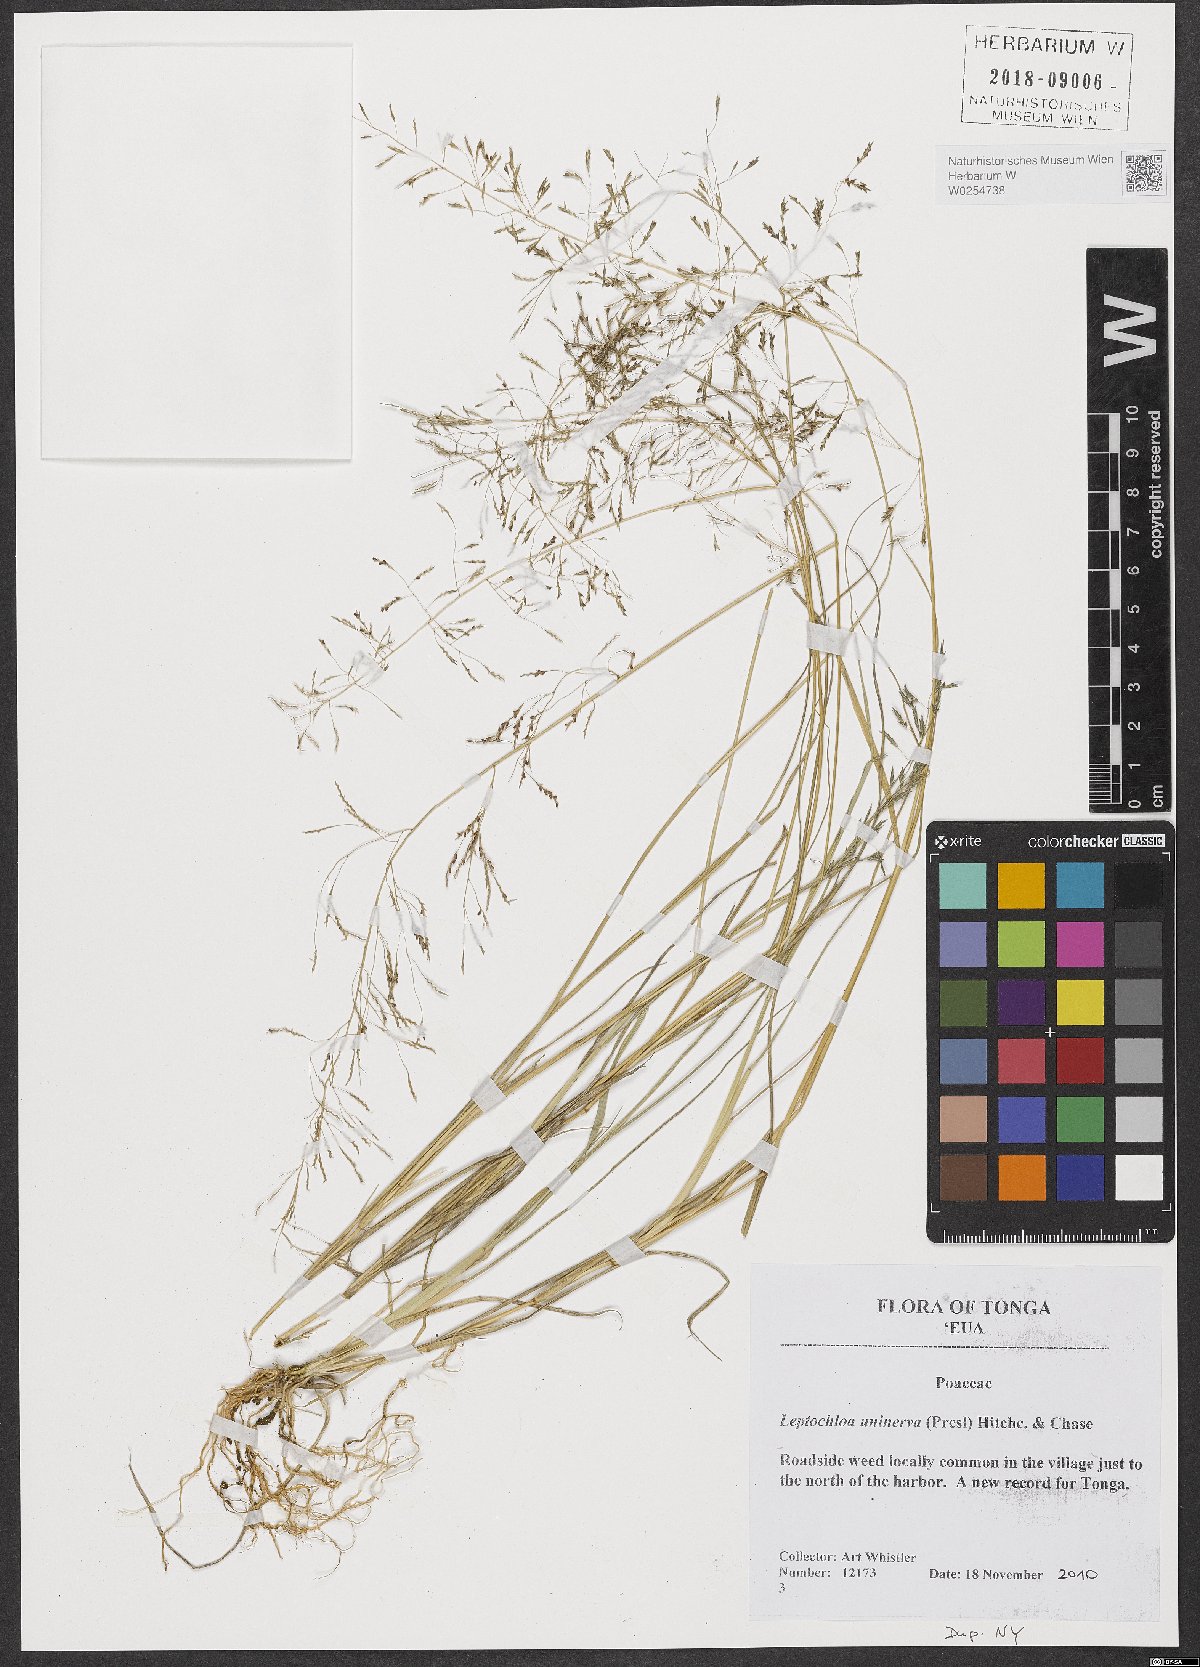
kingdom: Plantae
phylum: Tracheophyta
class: Liliopsida
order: Poales
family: Poaceae
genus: Diplachne
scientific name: Diplachne fusca
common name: Brown beetle grass
